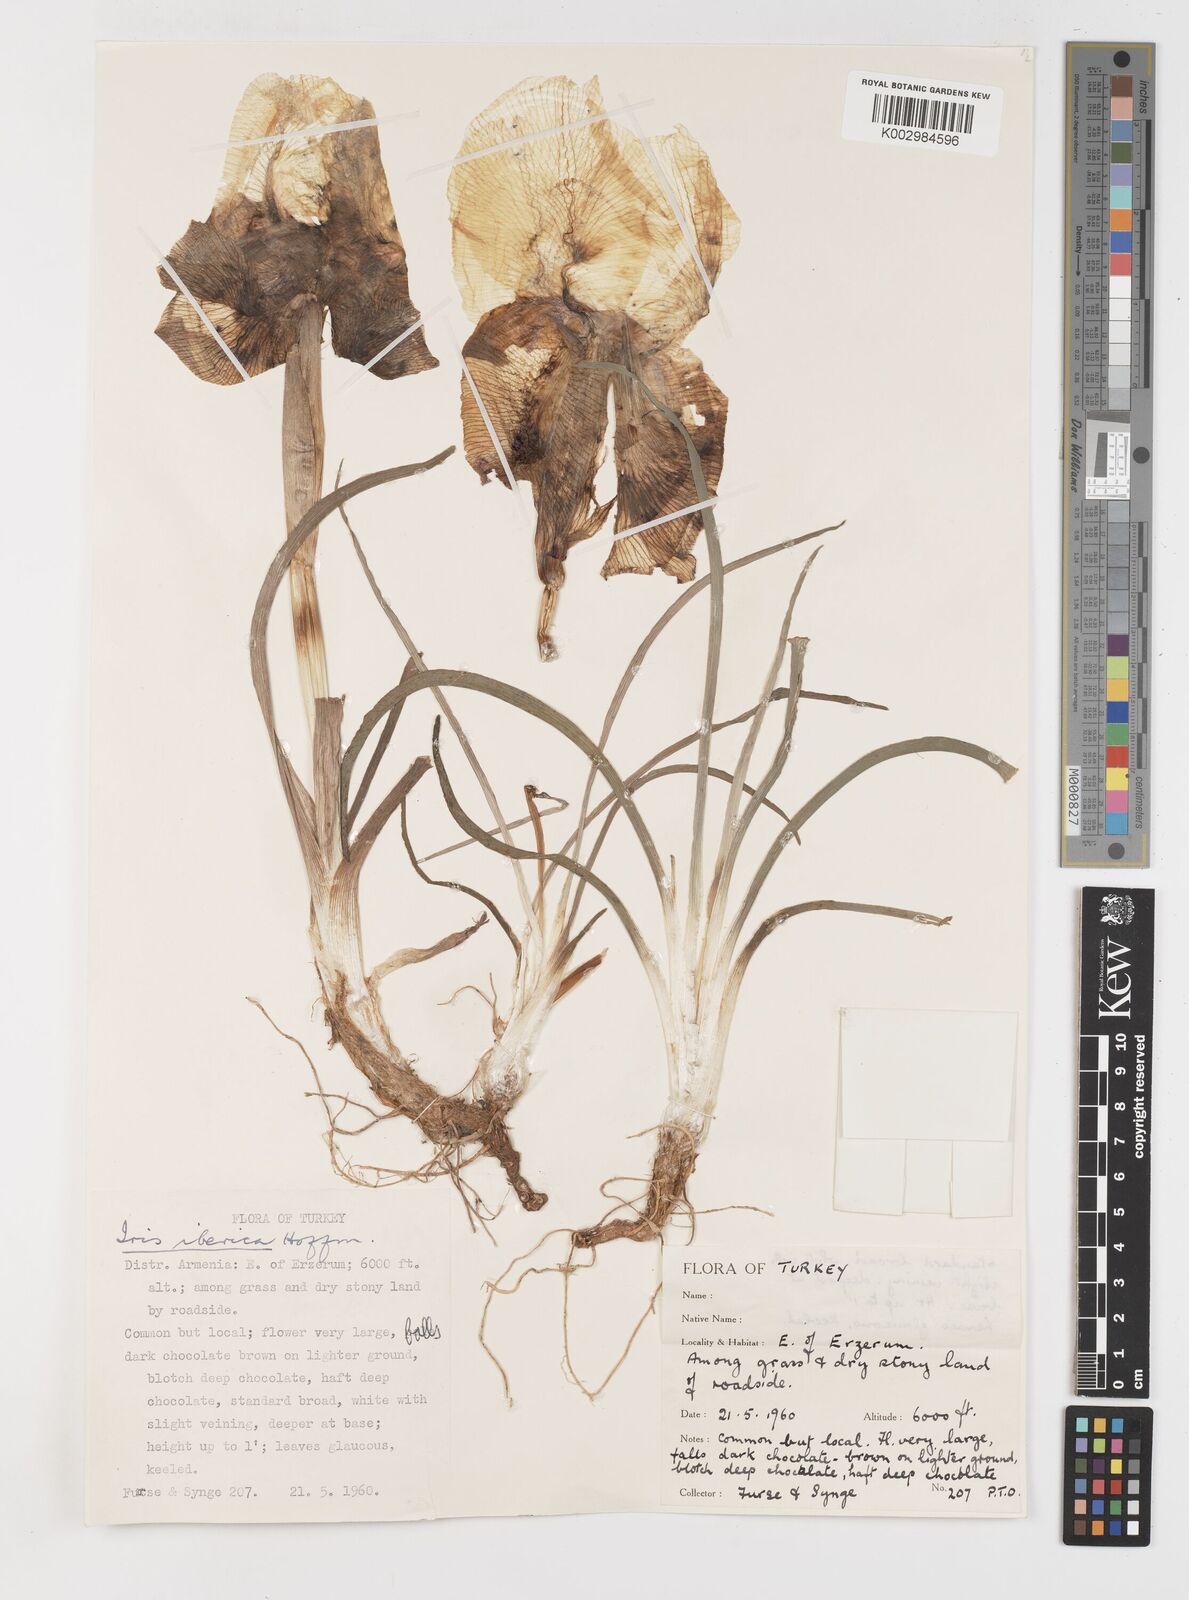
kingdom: Plantae
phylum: Tracheophyta
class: Liliopsida
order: Asparagales
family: Iridaceae
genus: Iris
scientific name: Iris iberica
